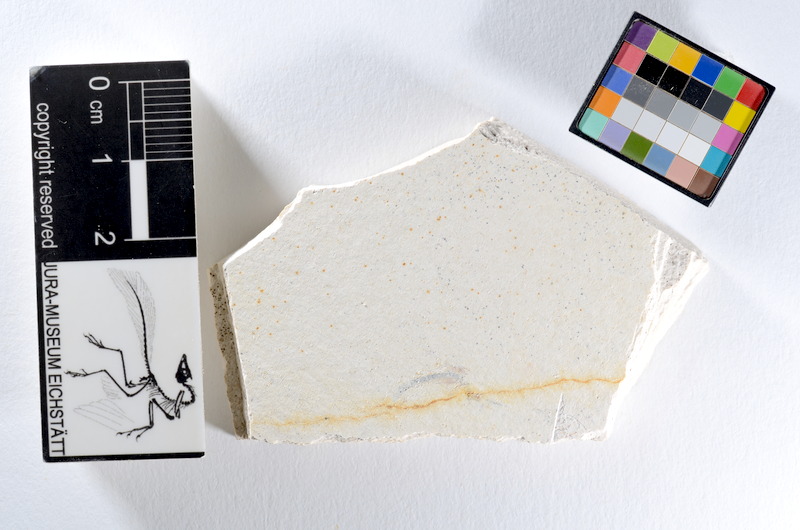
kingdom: Animalia
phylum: Chordata
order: Salmoniformes
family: Orthogonikleithridae
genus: Orthogonikleithrus
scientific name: Orthogonikleithrus hoelli
